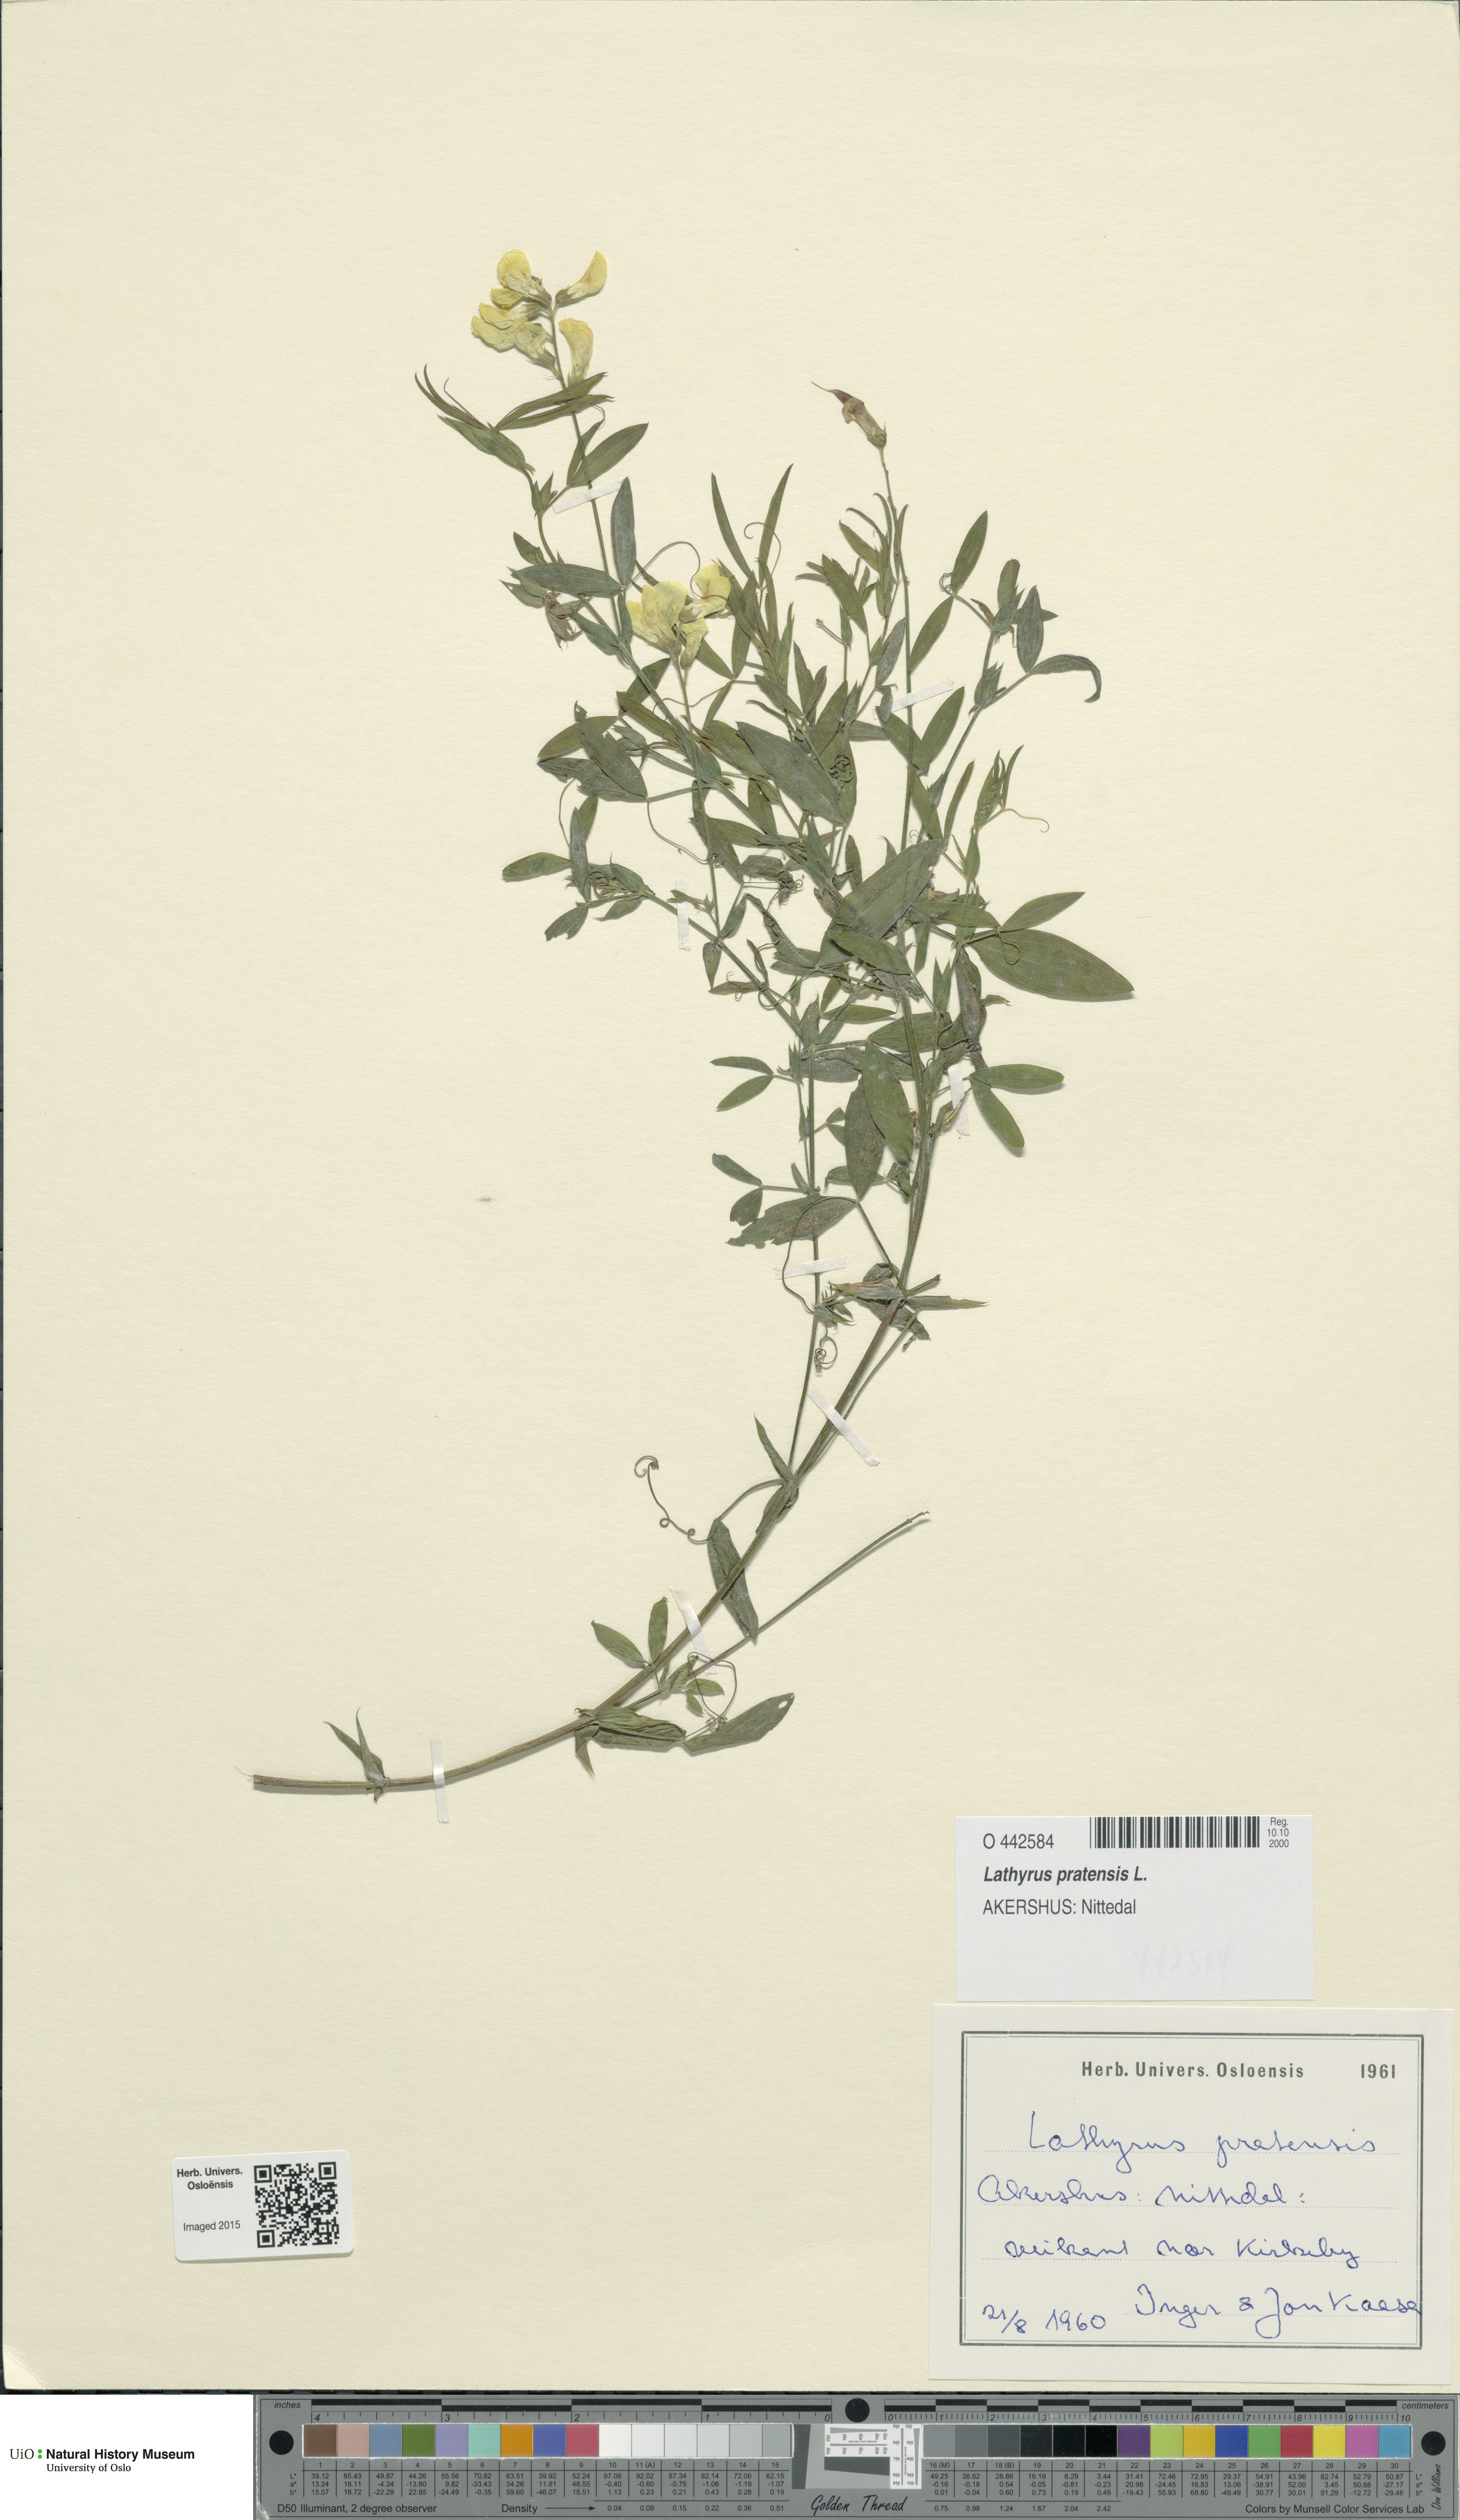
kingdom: Plantae
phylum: Tracheophyta
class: Magnoliopsida
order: Fabales
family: Fabaceae
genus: Lathyrus
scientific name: Lathyrus pratensis
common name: Meadow vetchling
